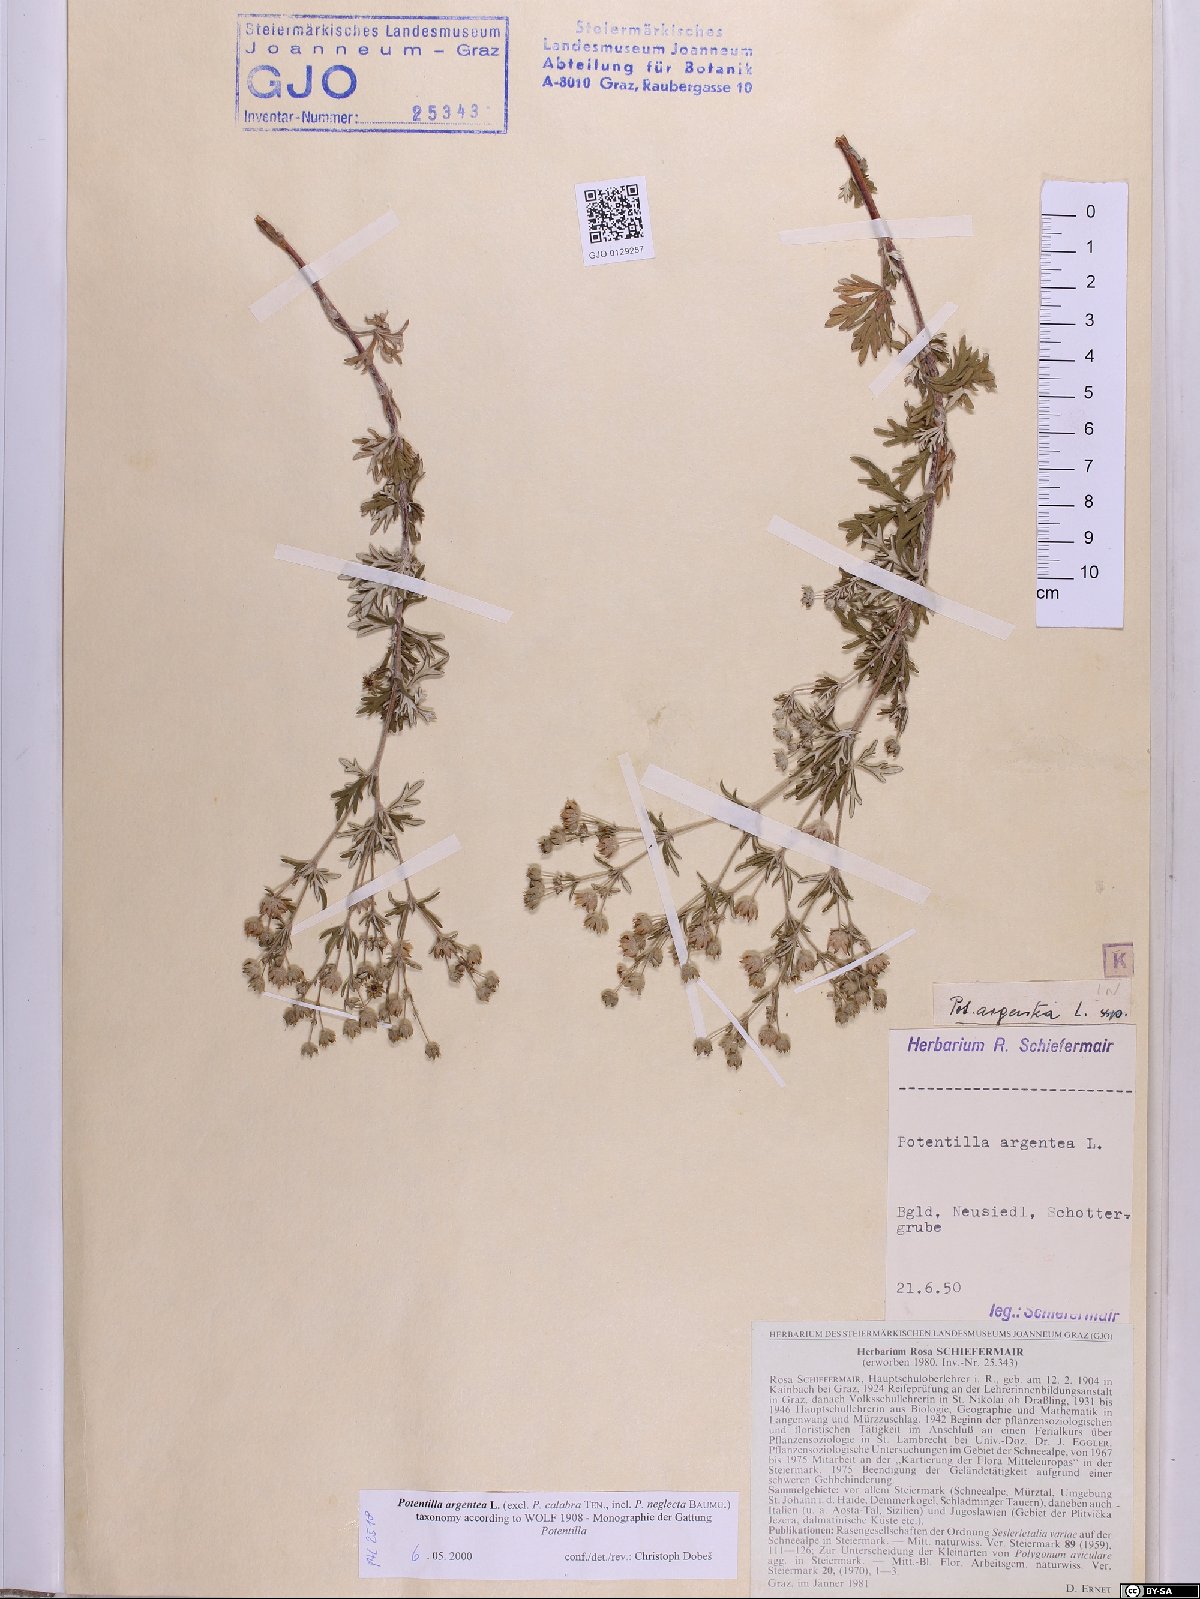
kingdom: Plantae
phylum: Tracheophyta
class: Magnoliopsida
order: Rosales
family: Rosaceae
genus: Potentilla
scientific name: Potentilla argentea
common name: Hoary cinquefoil
